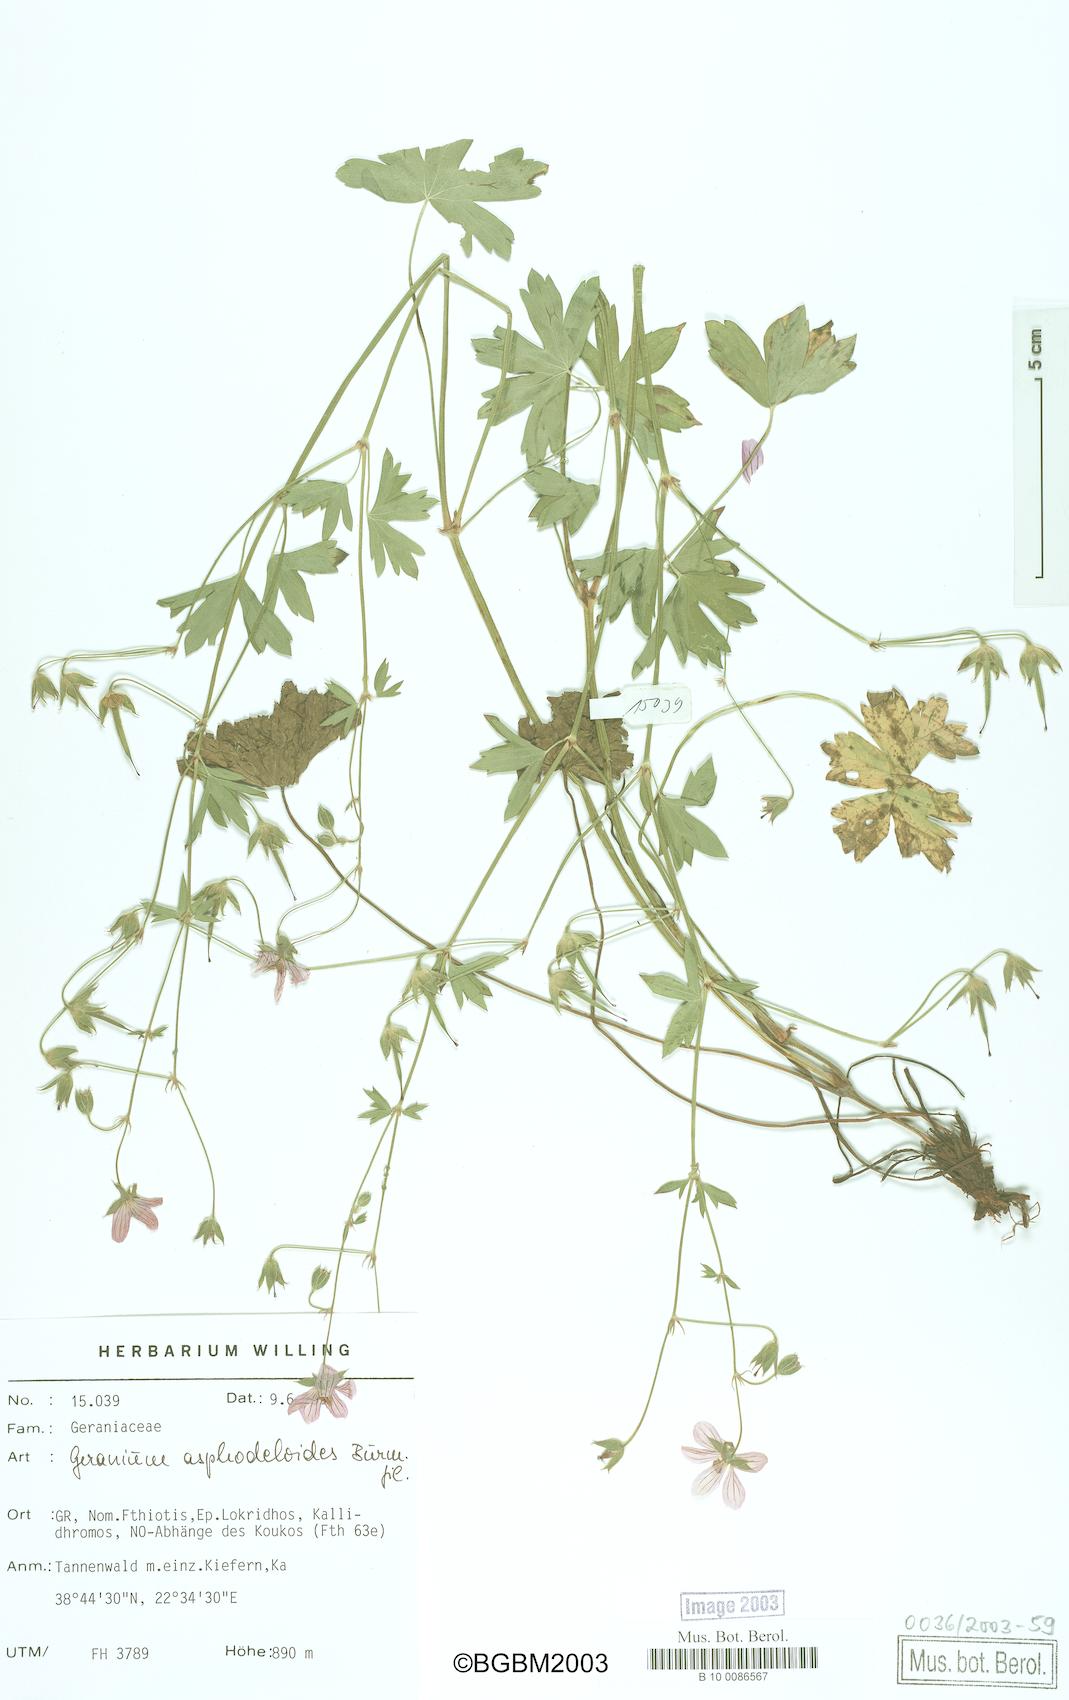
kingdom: Plantae
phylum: Tracheophyta
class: Magnoliopsida
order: Geraniales
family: Geraniaceae
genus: Geranium
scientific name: Geranium asphodeloides
